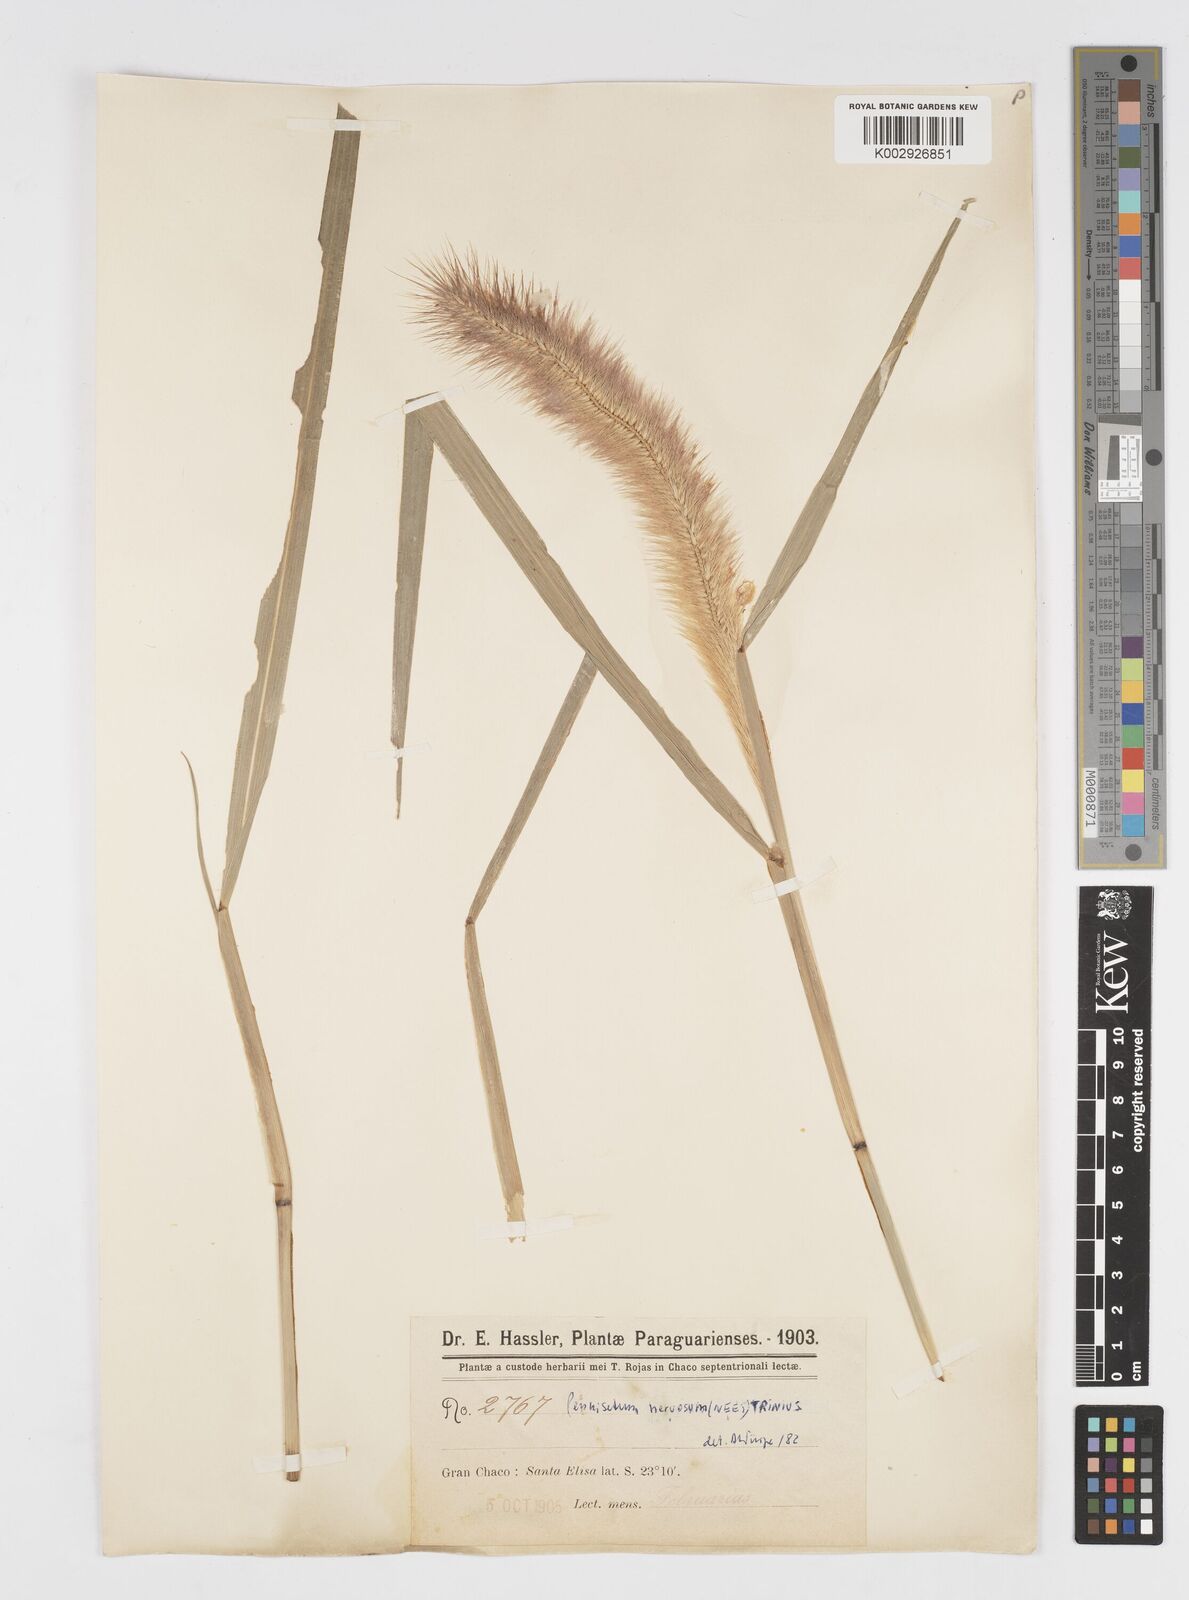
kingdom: Plantae
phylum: Tracheophyta
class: Liliopsida
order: Poales
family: Poaceae
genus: Cenchrus
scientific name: Cenchrus nervosus
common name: Bentspike fountaingrass
